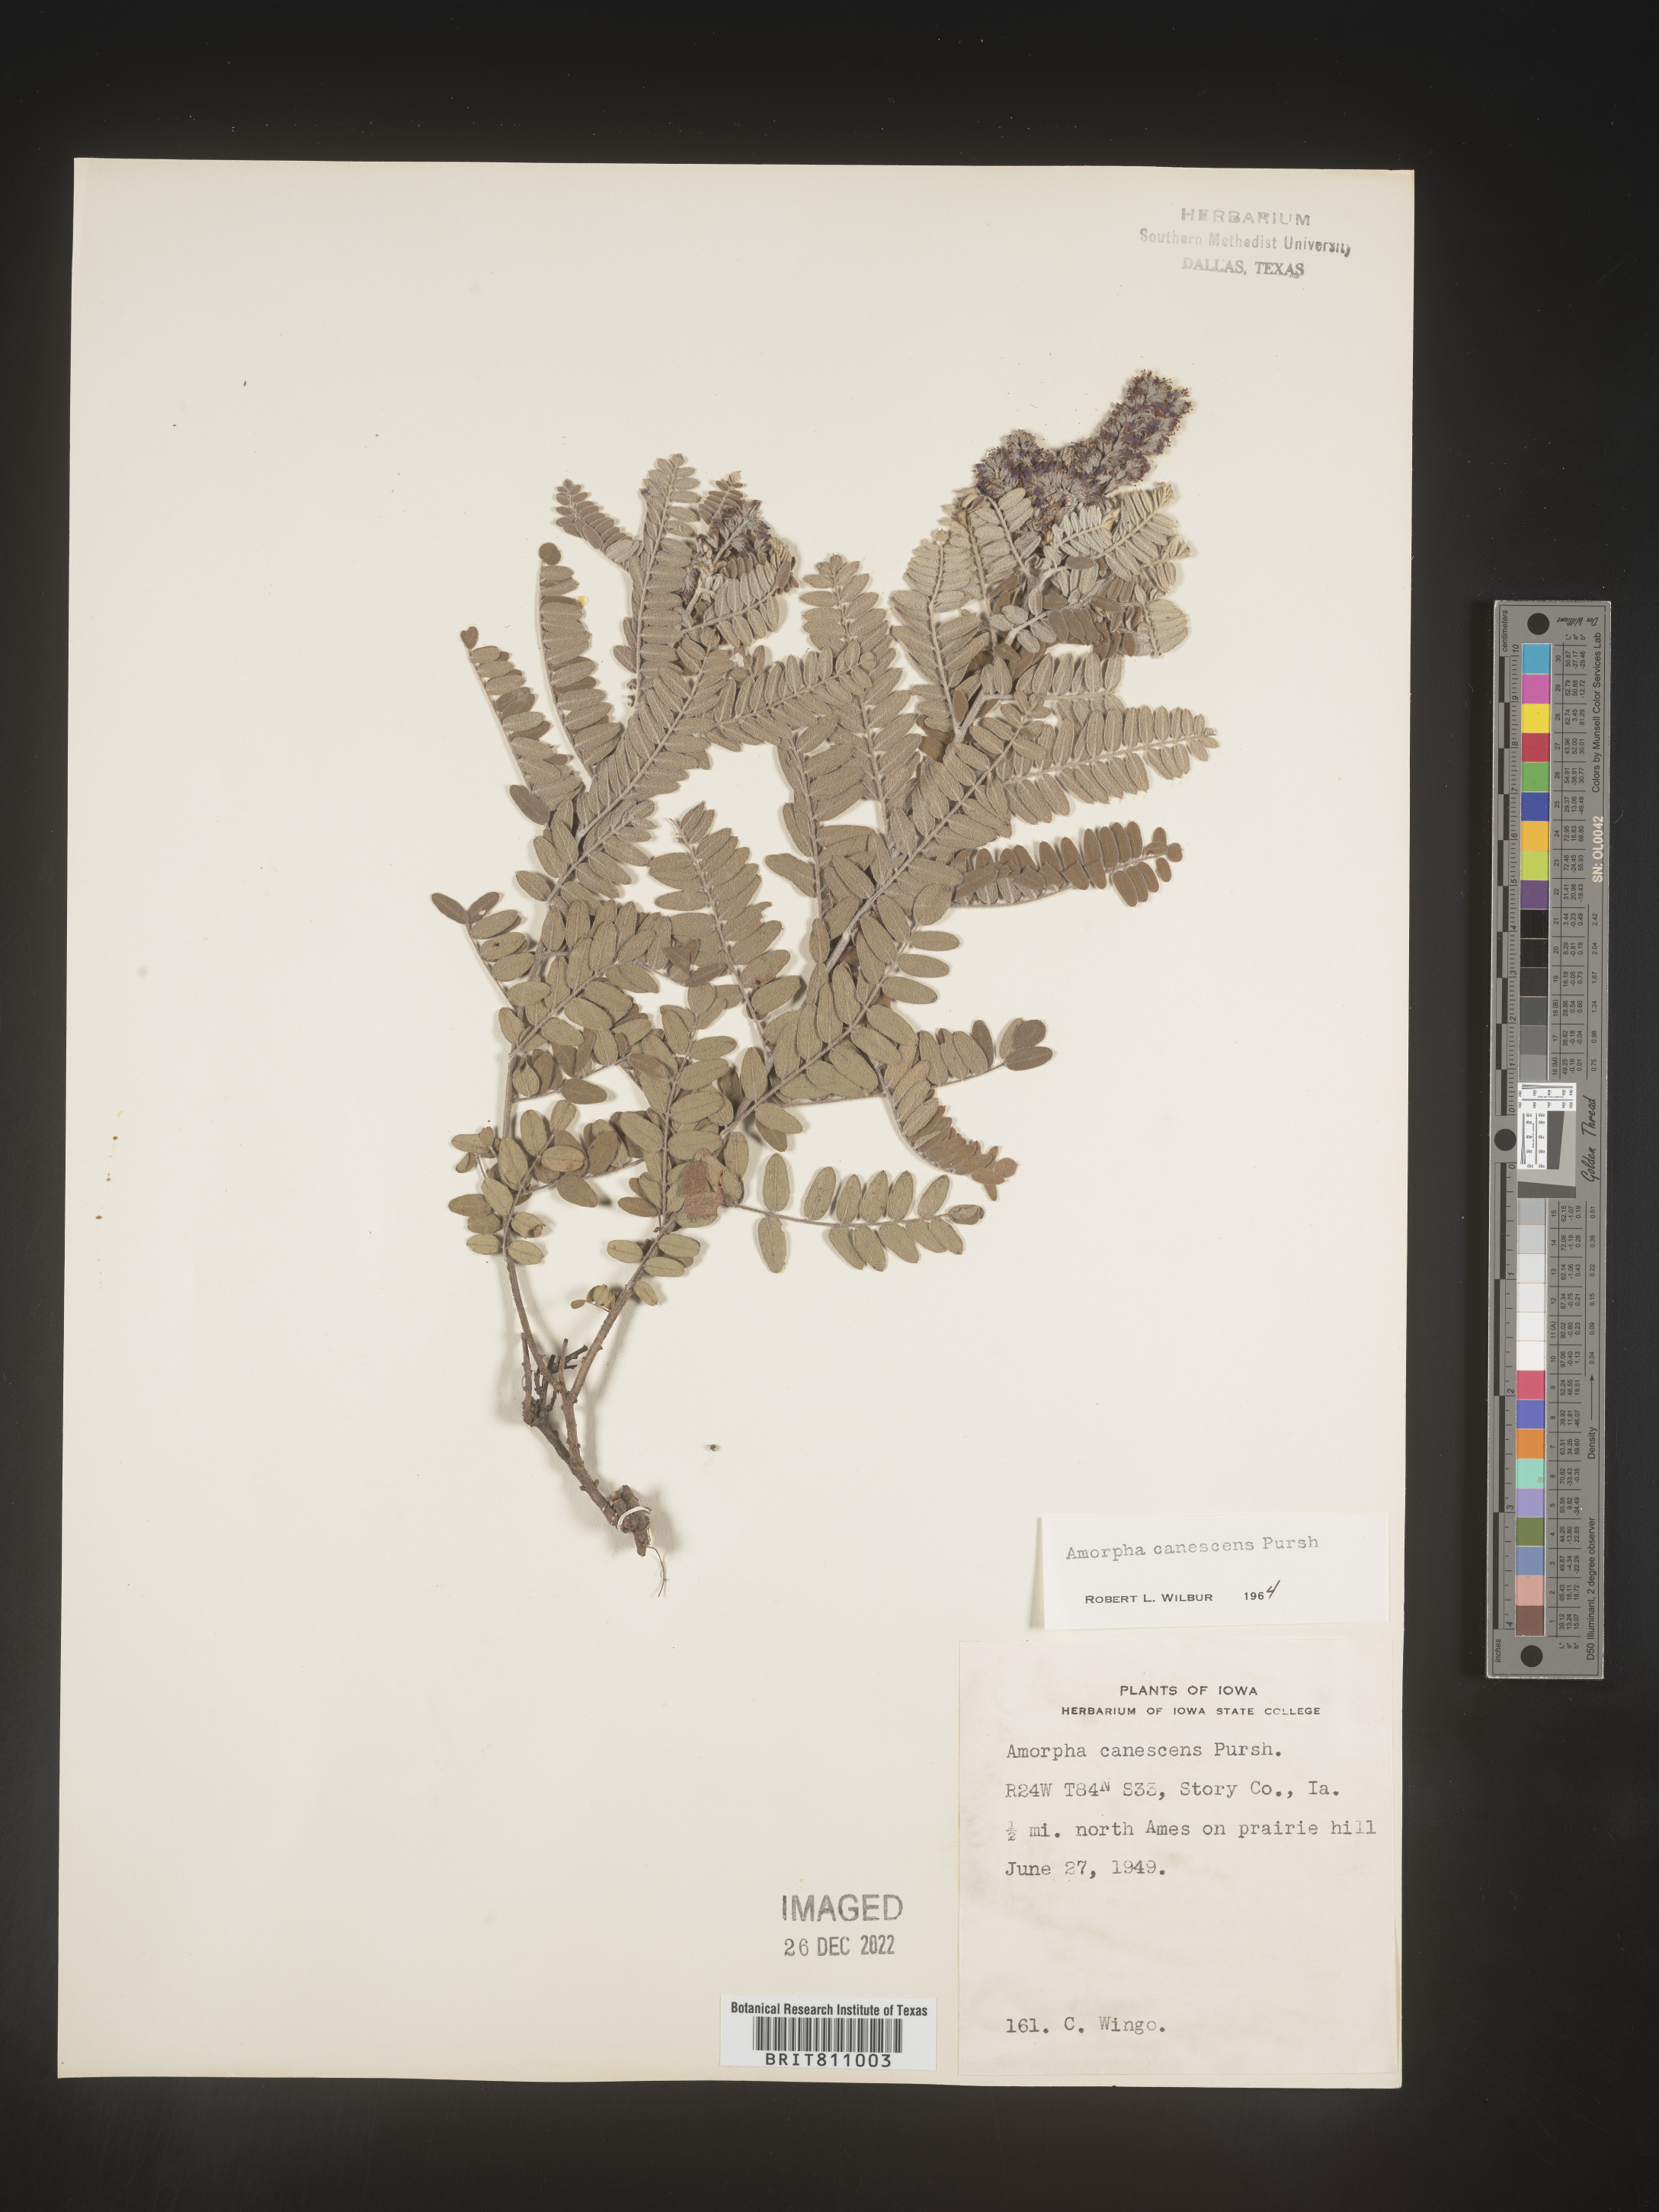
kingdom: Plantae
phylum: Tracheophyta
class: Magnoliopsida
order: Fabales
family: Fabaceae
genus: Amorpha
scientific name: Amorpha canescens
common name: Leadplant
